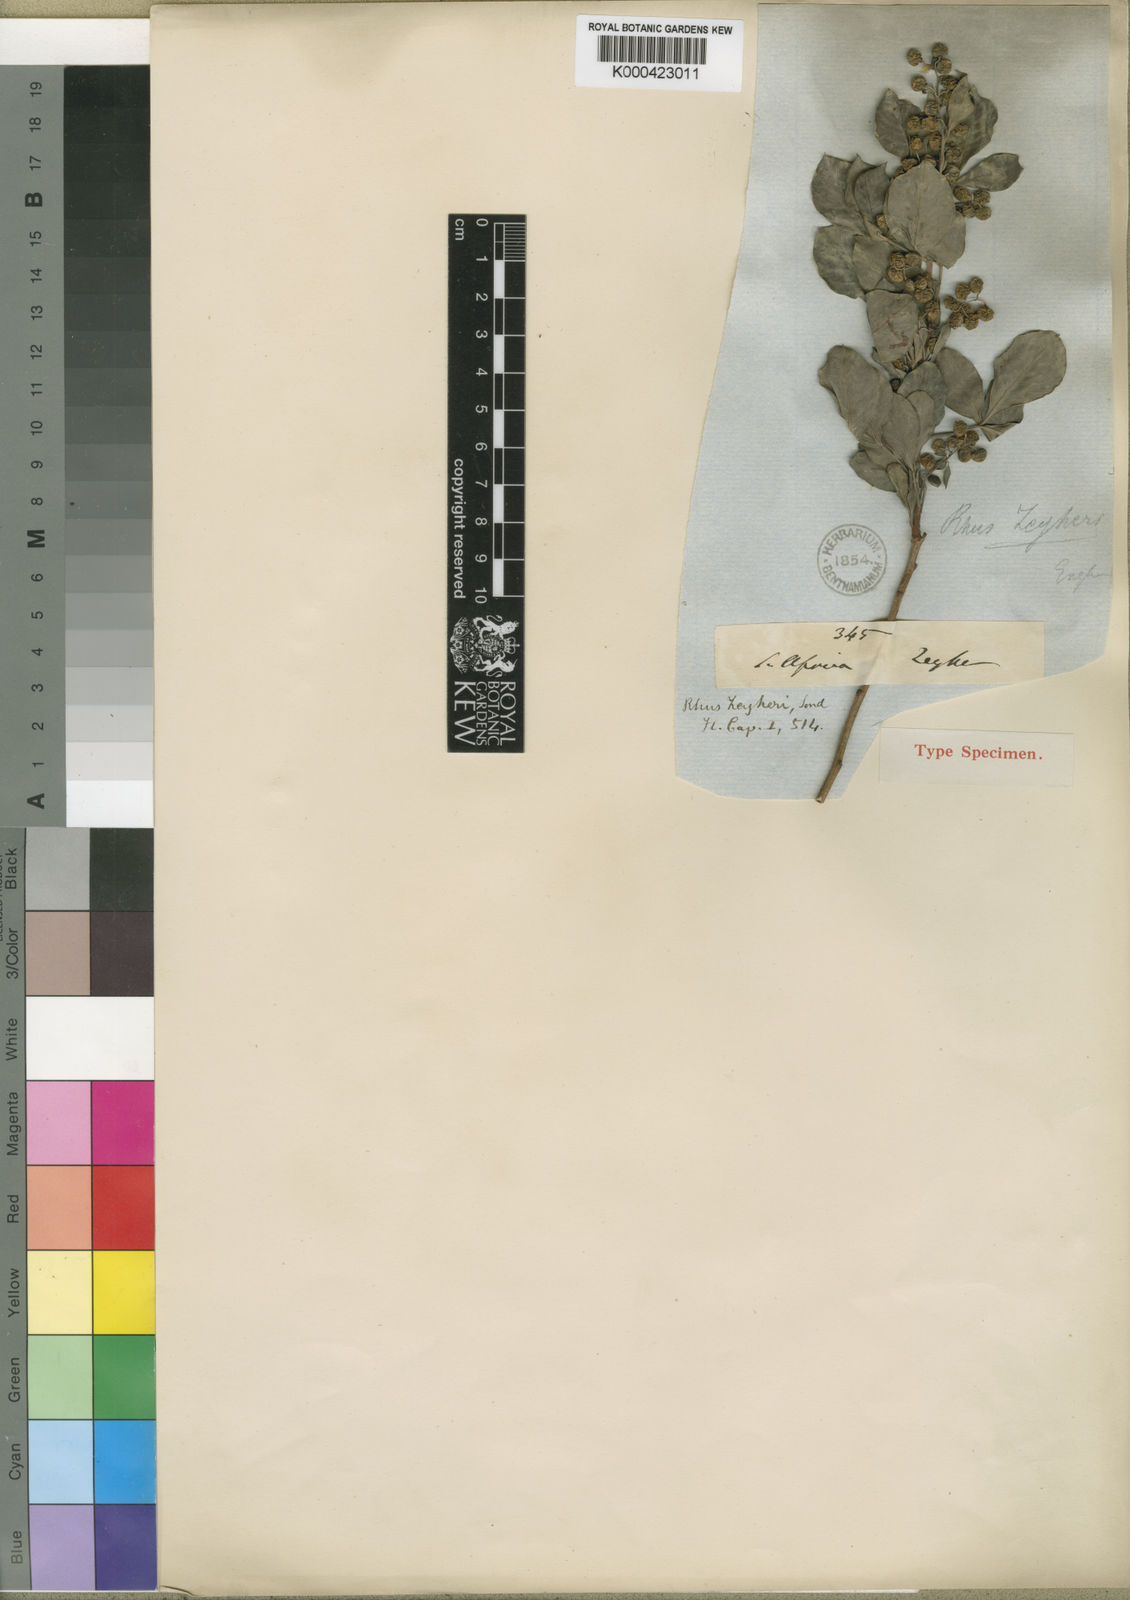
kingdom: Plantae
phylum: Tracheophyta
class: Magnoliopsida
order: Sapindales
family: Anacardiaceae
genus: Searsia
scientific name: Searsia zeyheri
